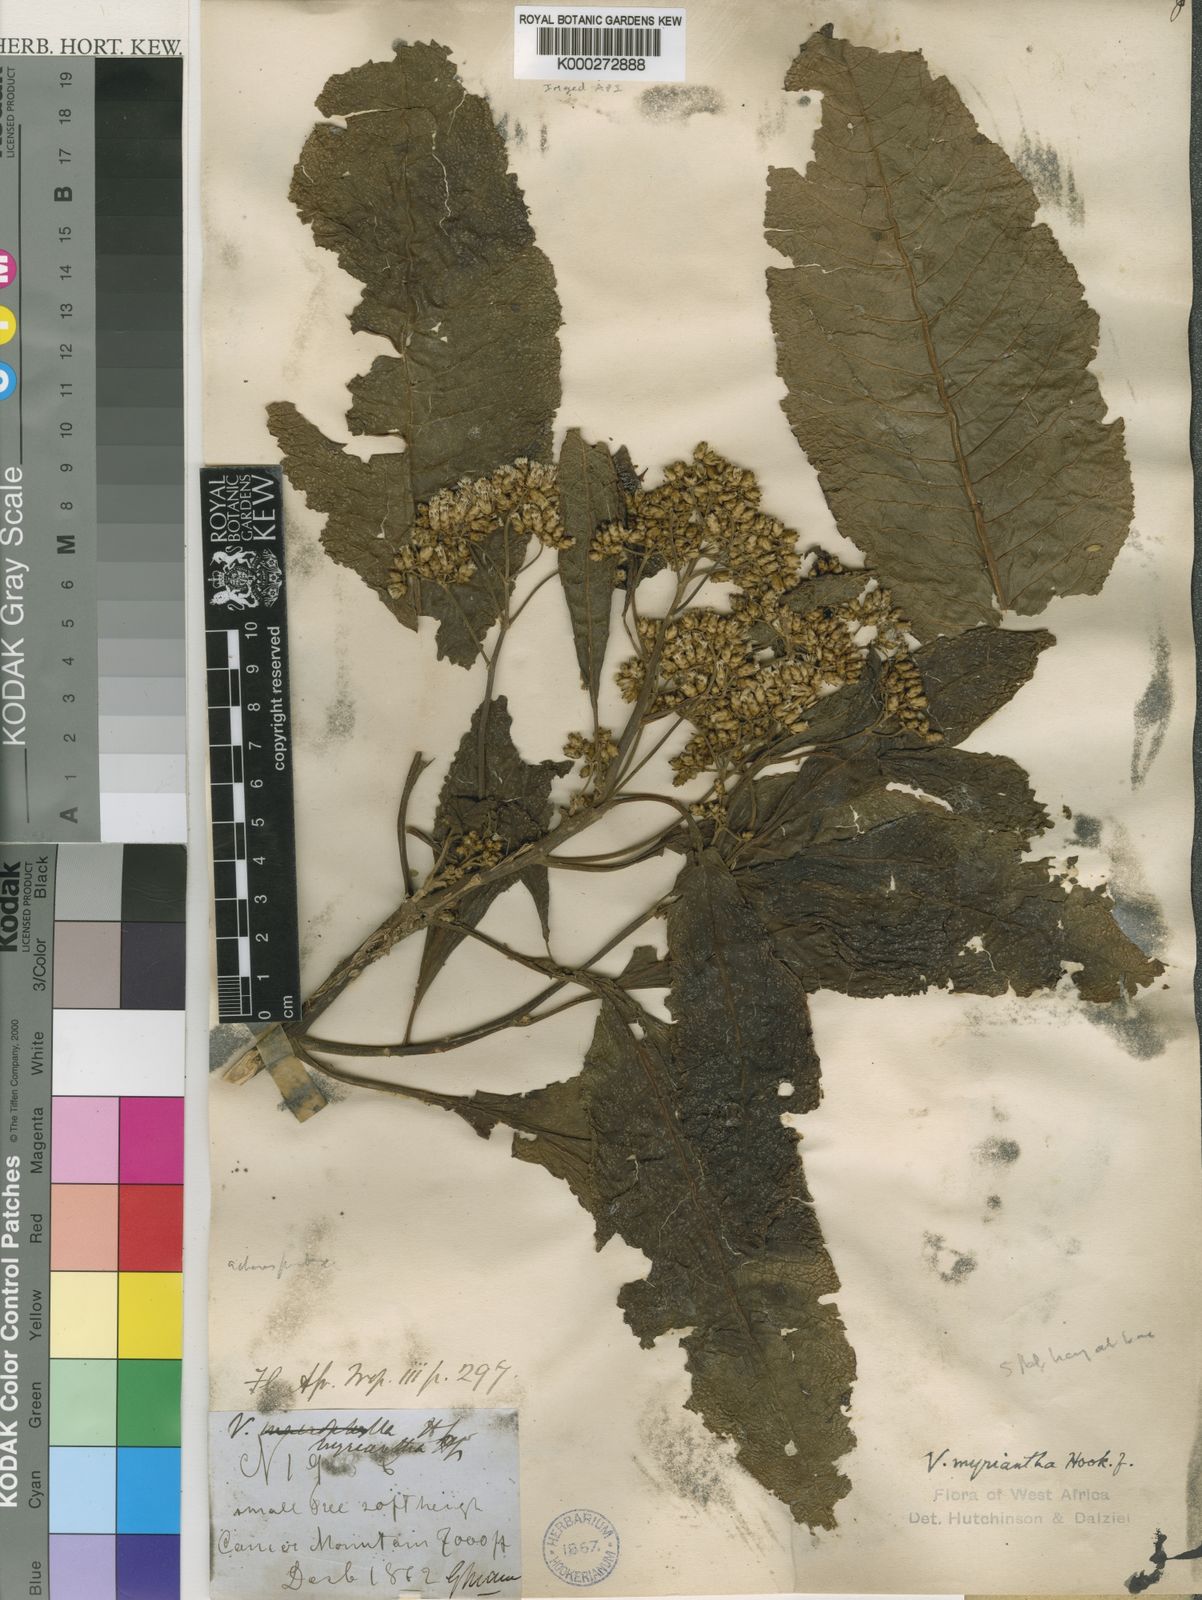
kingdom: Plantae
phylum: Tracheophyta
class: Magnoliopsida
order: Asterales
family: Asteraceae
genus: Gymnanthemum
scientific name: Gymnanthemum myrianthum
